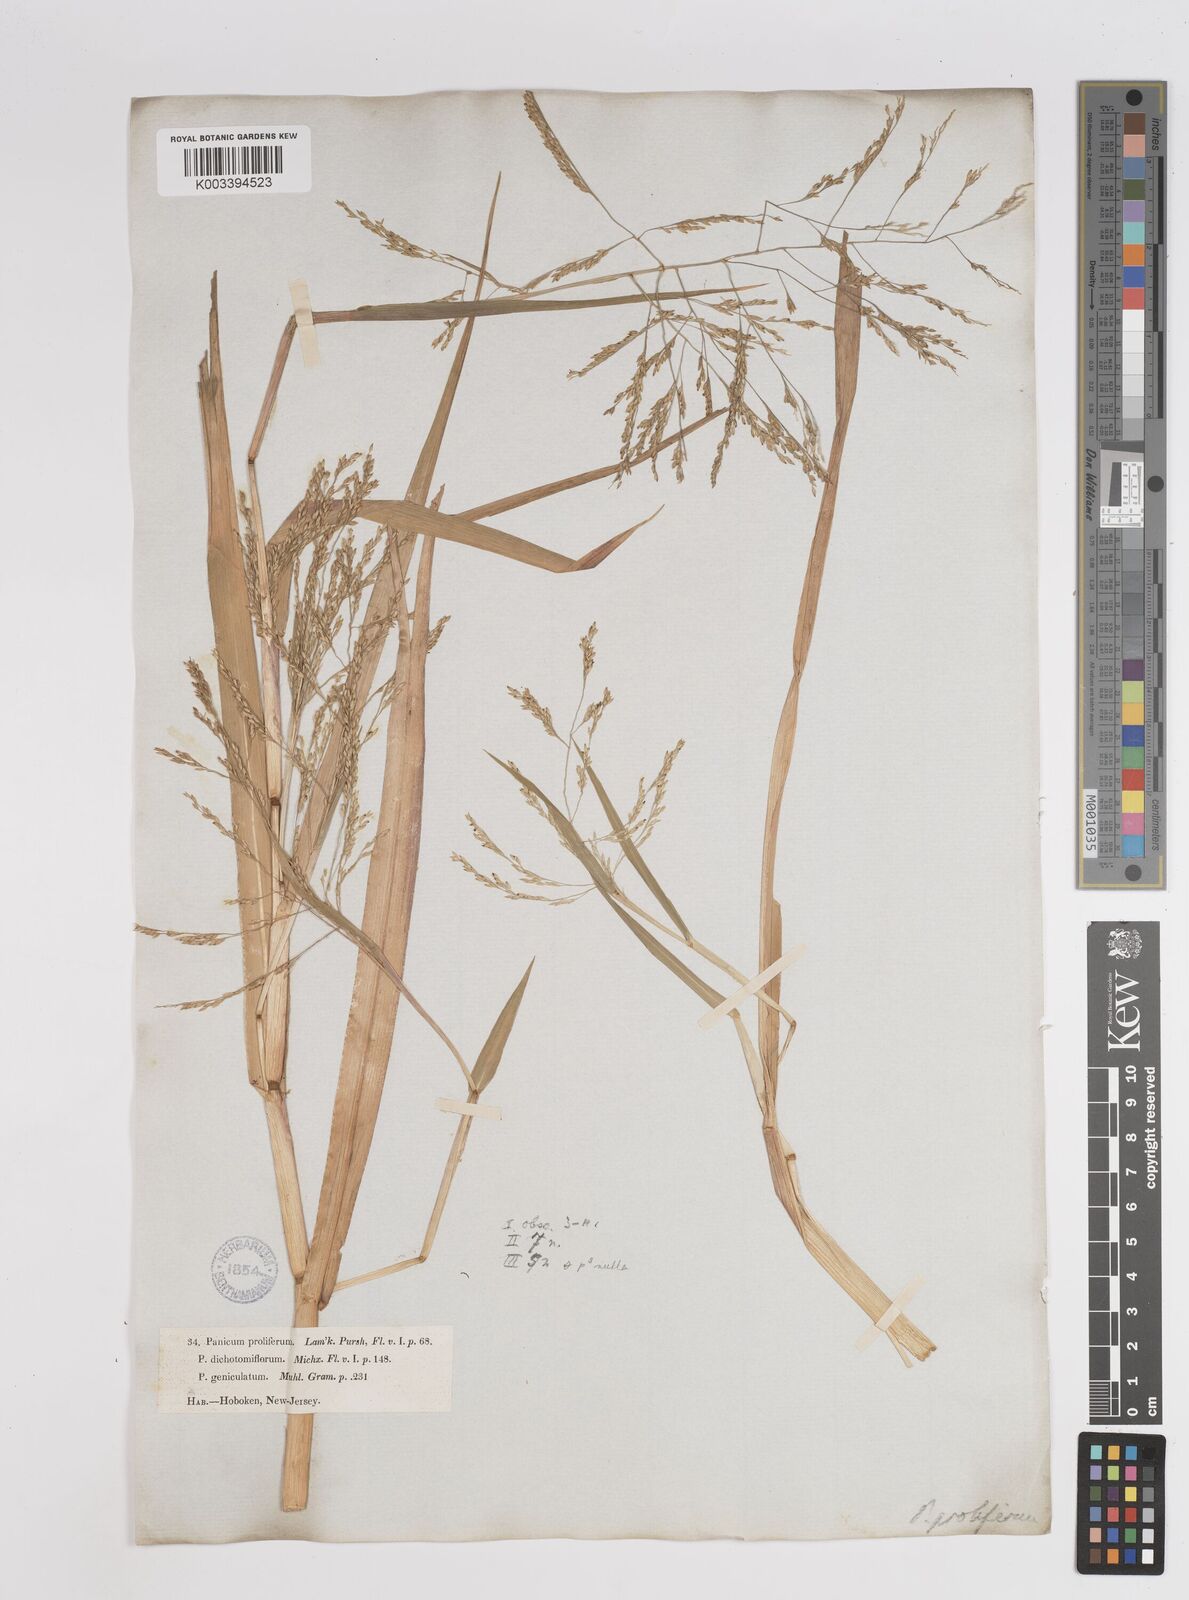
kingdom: Plantae
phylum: Tracheophyta
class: Liliopsida
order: Poales
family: Poaceae
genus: Panicum
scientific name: Panicum dichotomiflorum
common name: Autumn millet
